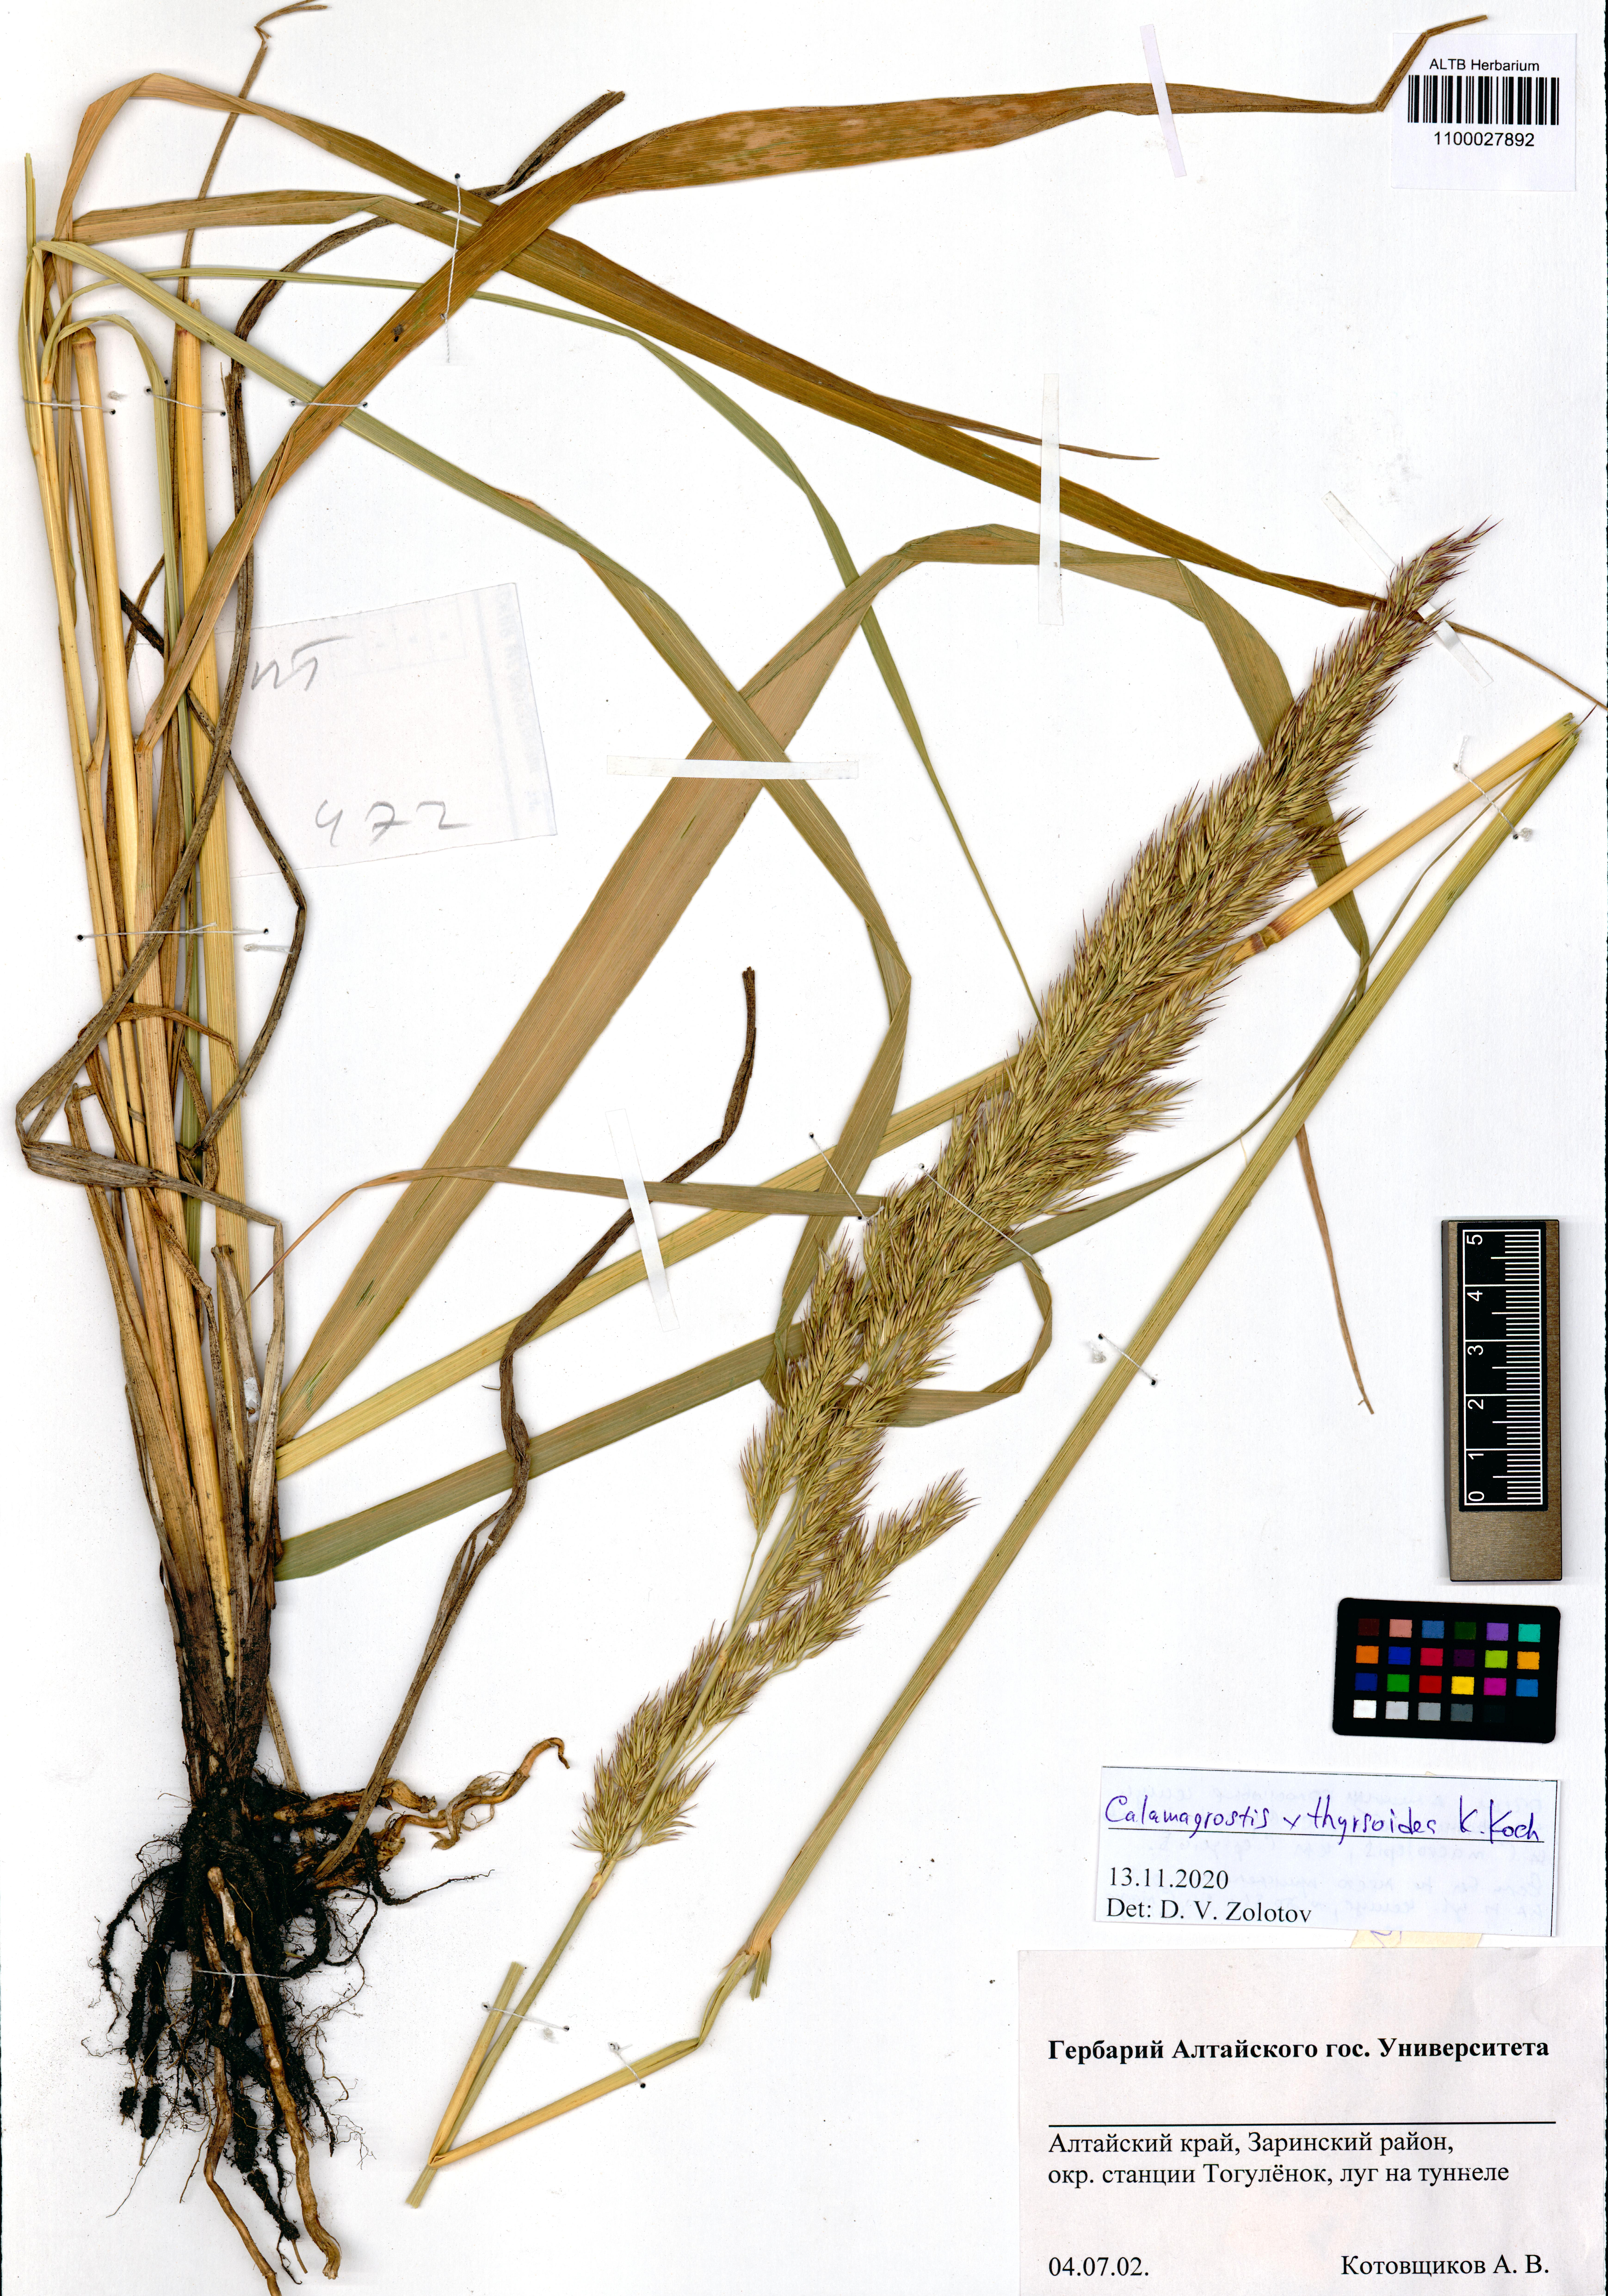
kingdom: Plantae
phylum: Tracheophyta
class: Liliopsida
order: Poales
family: Poaceae
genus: Calamagrostis
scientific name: Calamagrostis epigejos x pseudophragmites
